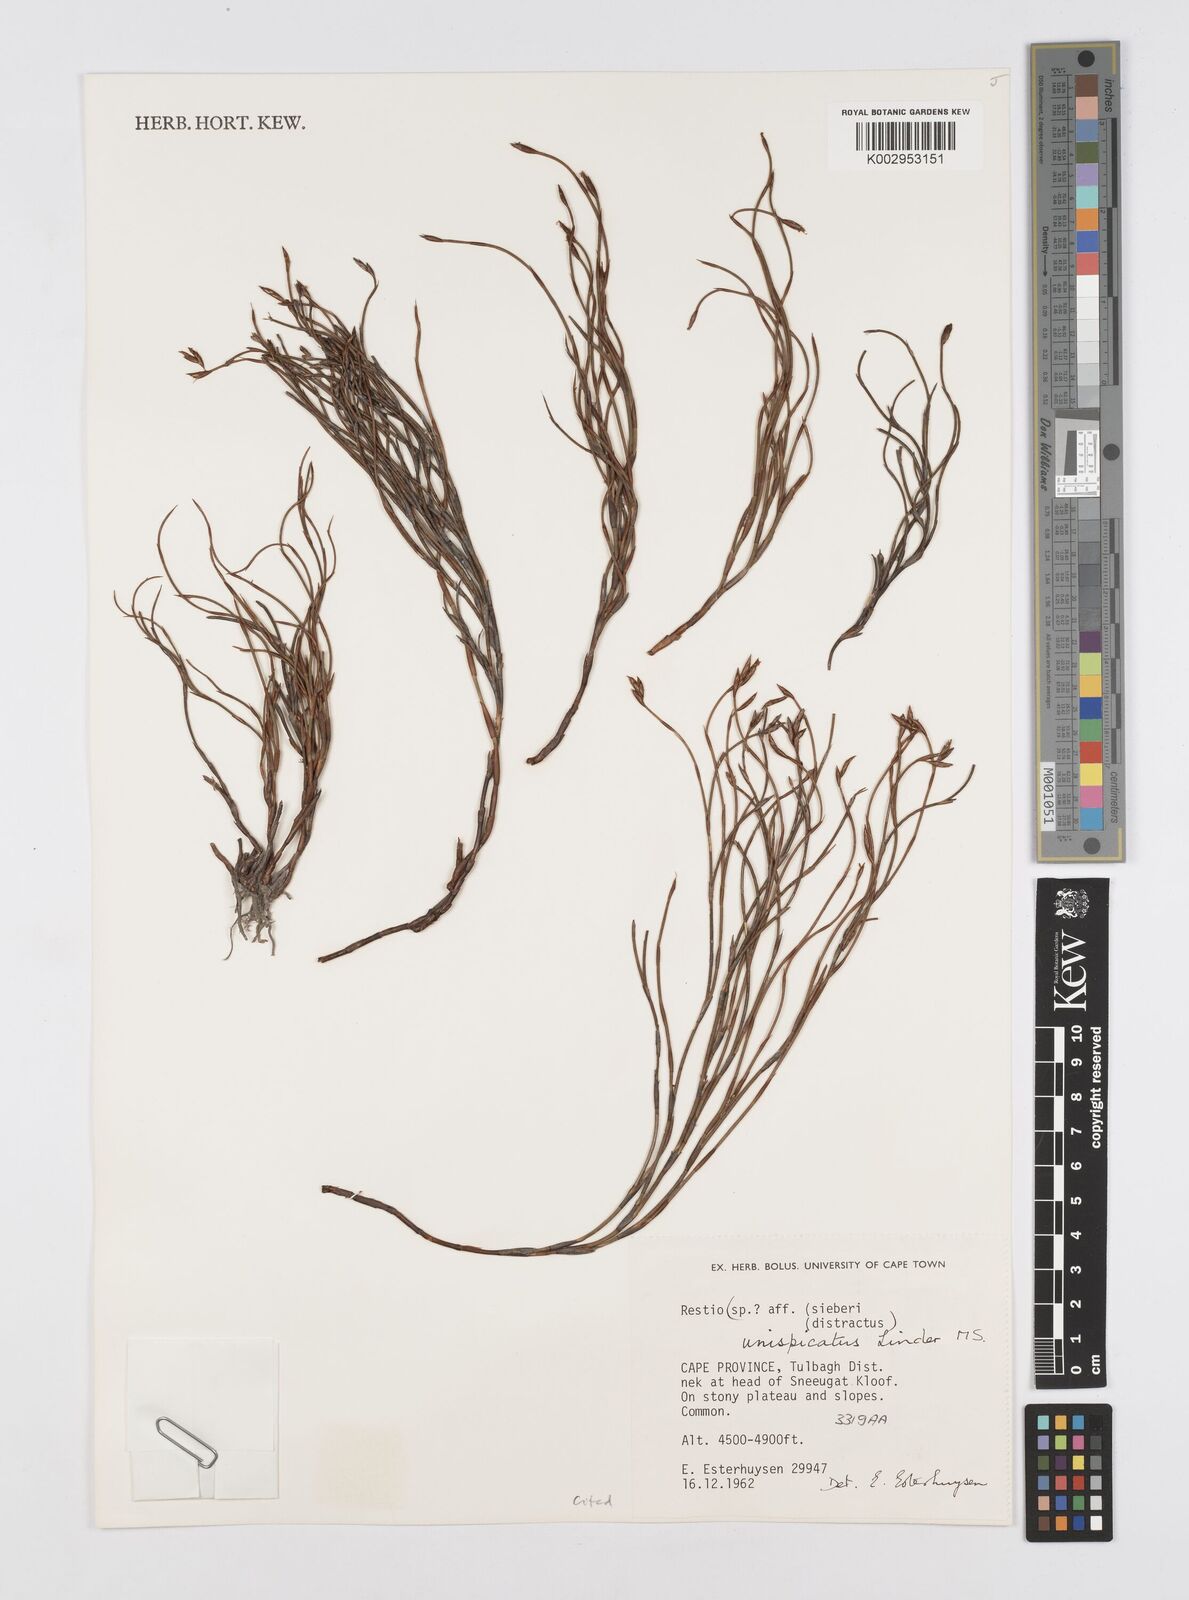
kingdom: Plantae
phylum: Tracheophyta
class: Liliopsida
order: Poales
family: Restionaceae
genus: Restio
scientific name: Restio unispicatus
